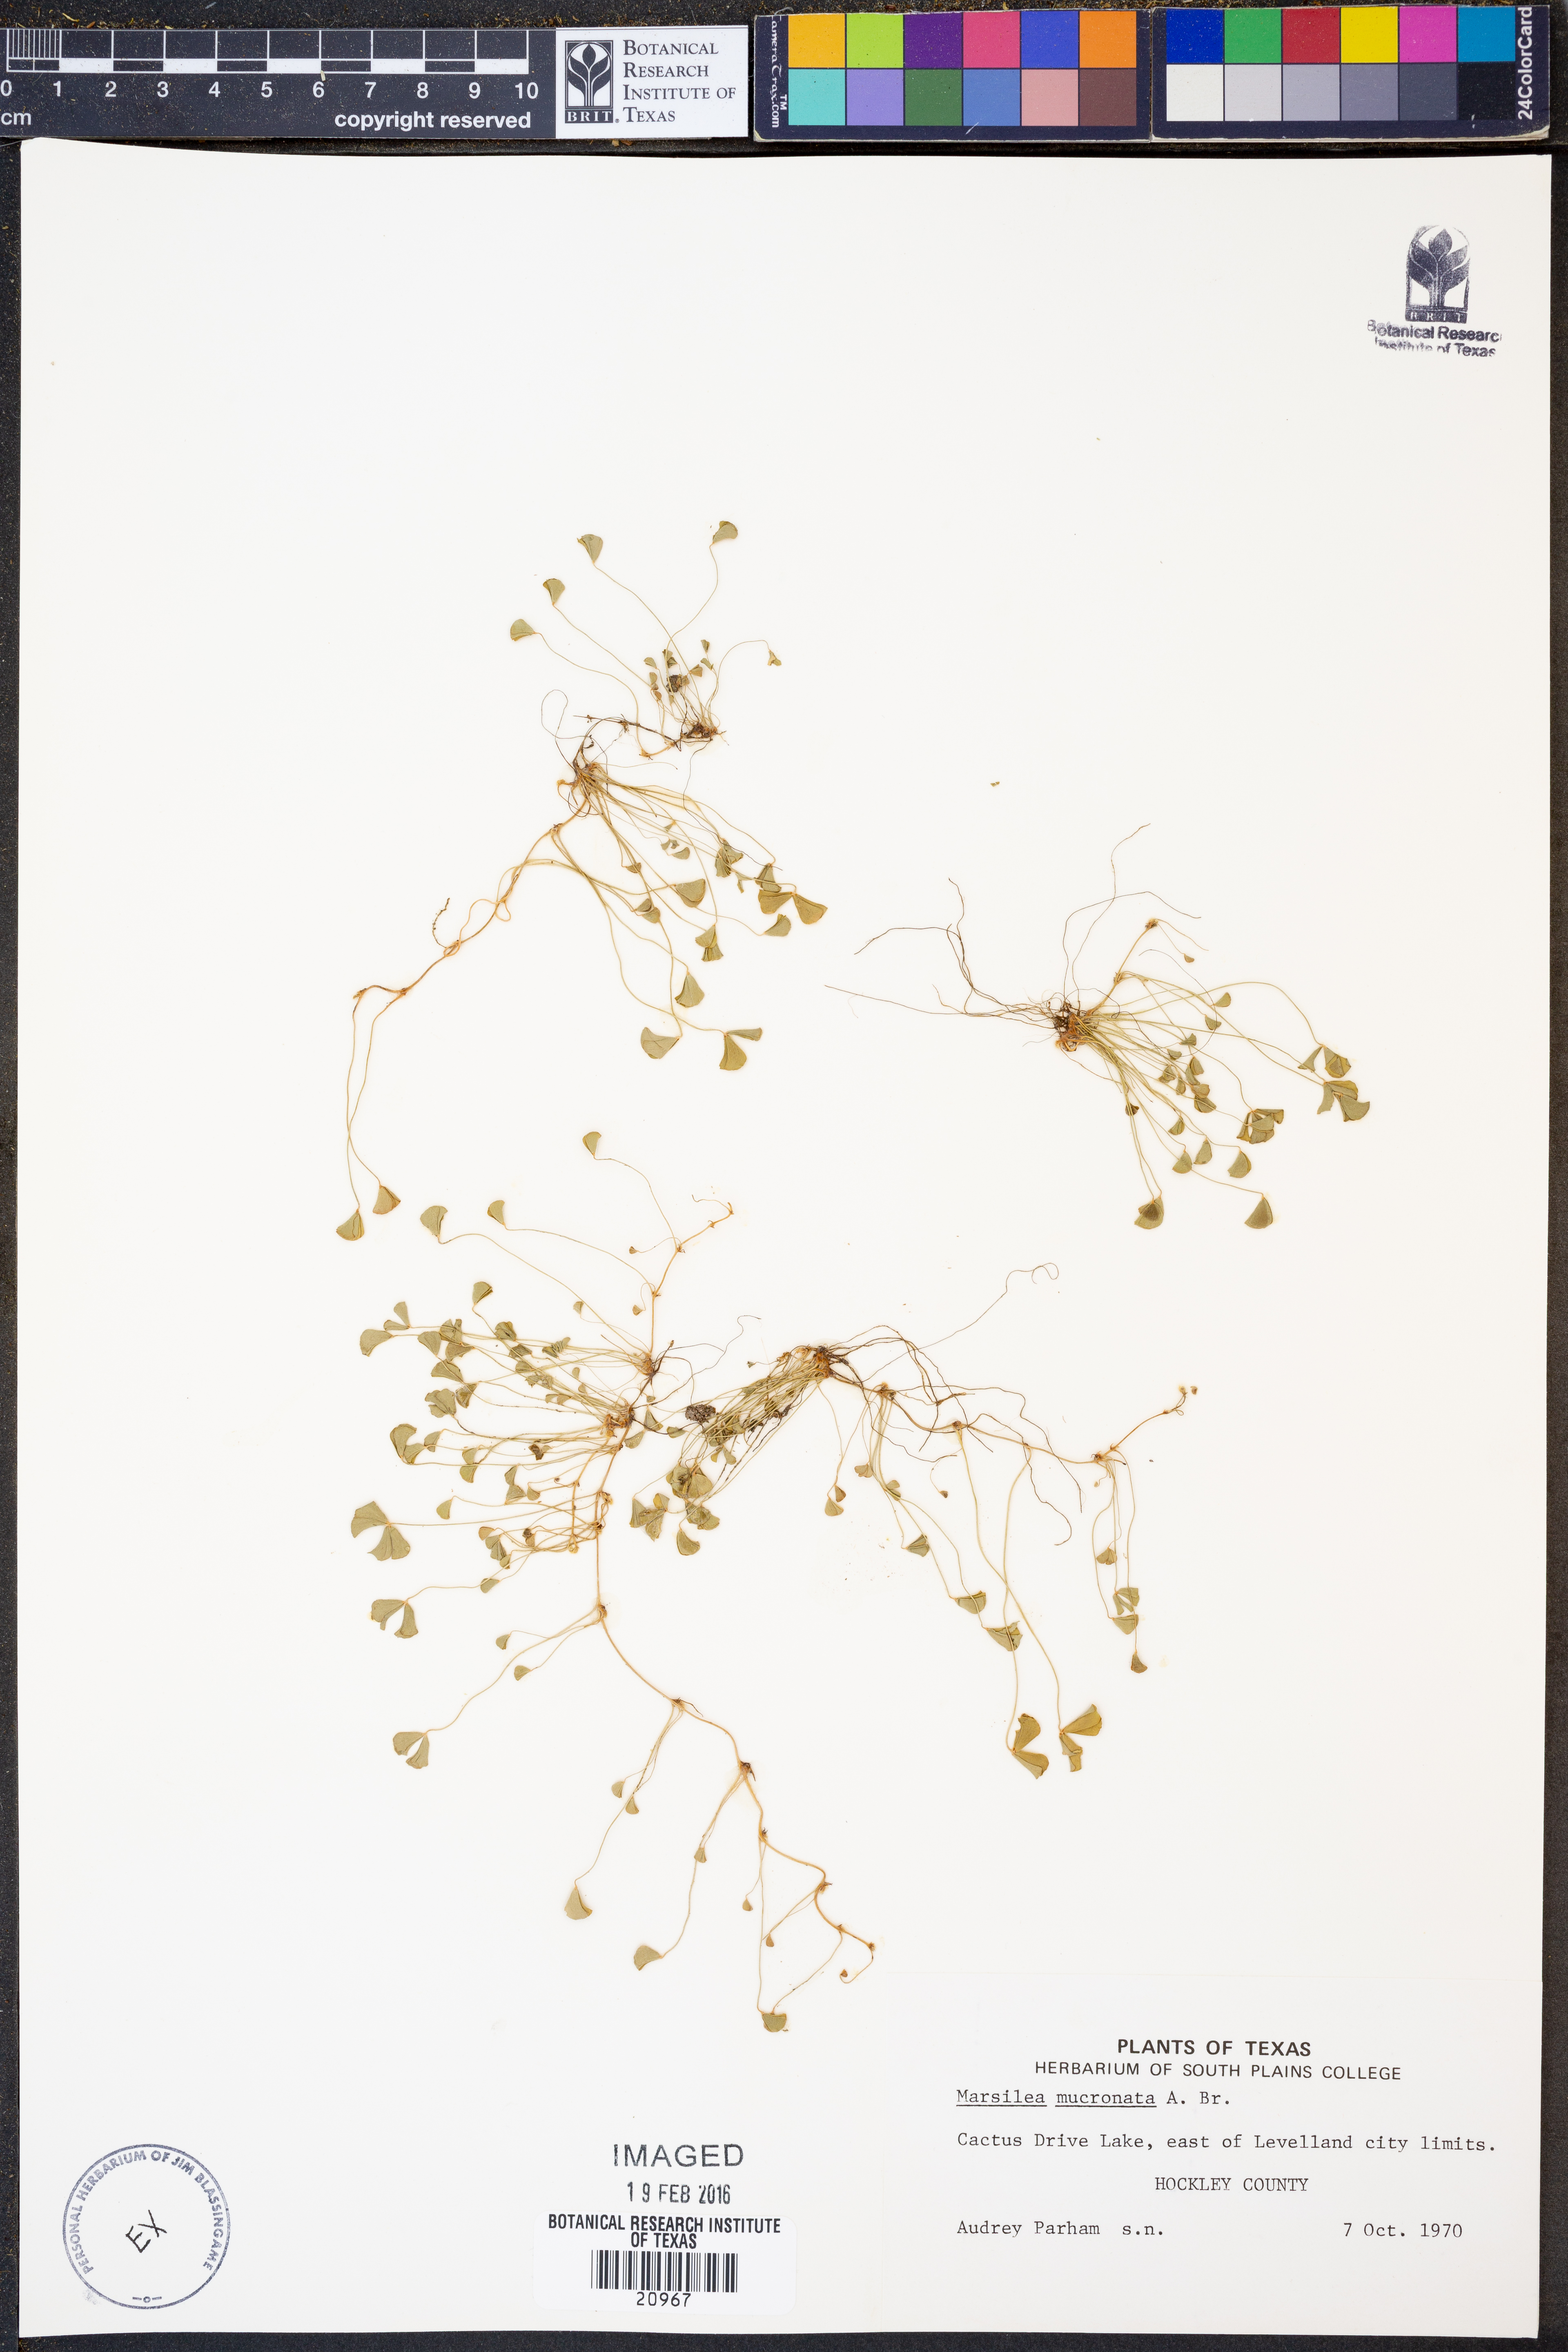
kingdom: Plantae
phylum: Tracheophyta
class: Polypodiopsida
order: Salviniales
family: Marsileaceae
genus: Marsilea
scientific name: Marsilea vestita
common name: Hooked-pepperwort
